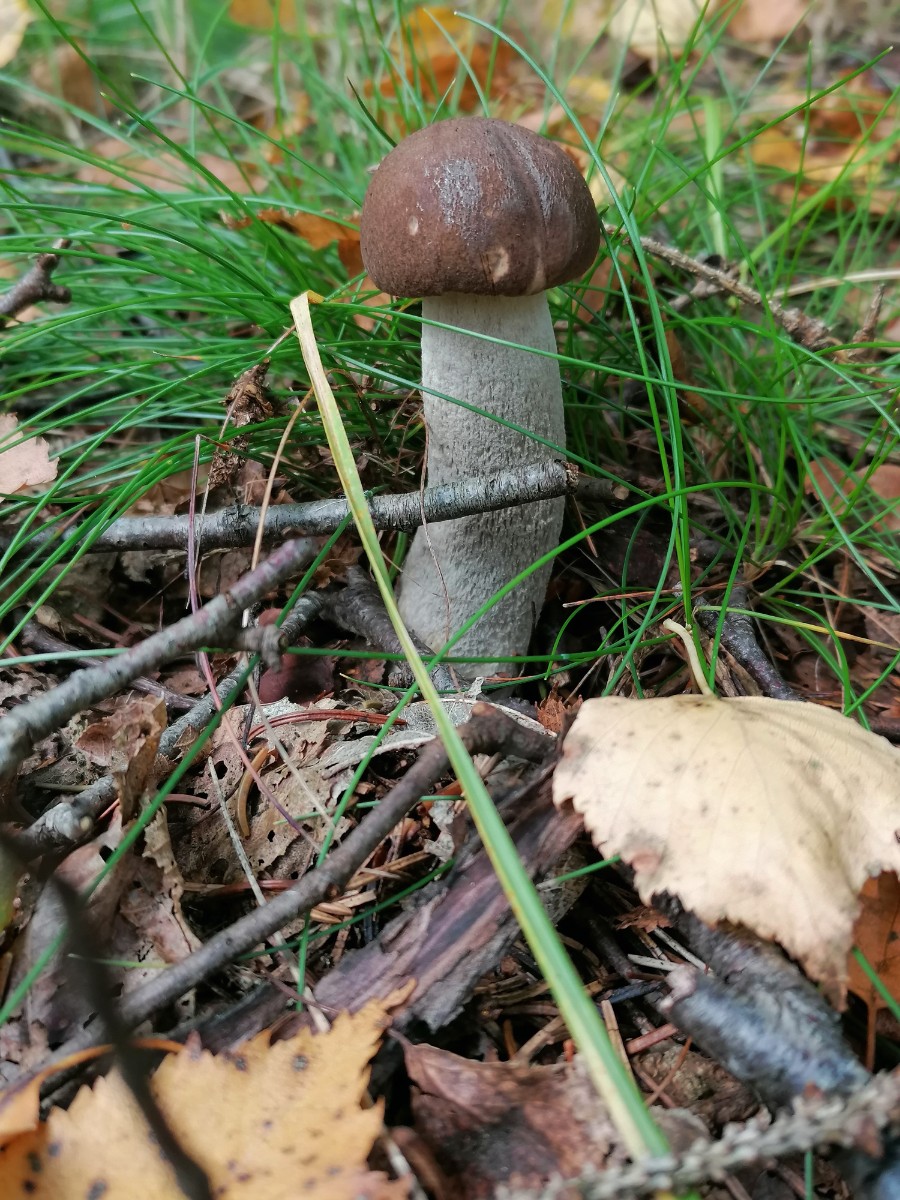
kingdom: Fungi
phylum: Basidiomycota
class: Agaricomycetes
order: Boletales
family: Boletaceae
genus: Leccinum
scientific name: Leccinum scabrum
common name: brun skælrørhat
